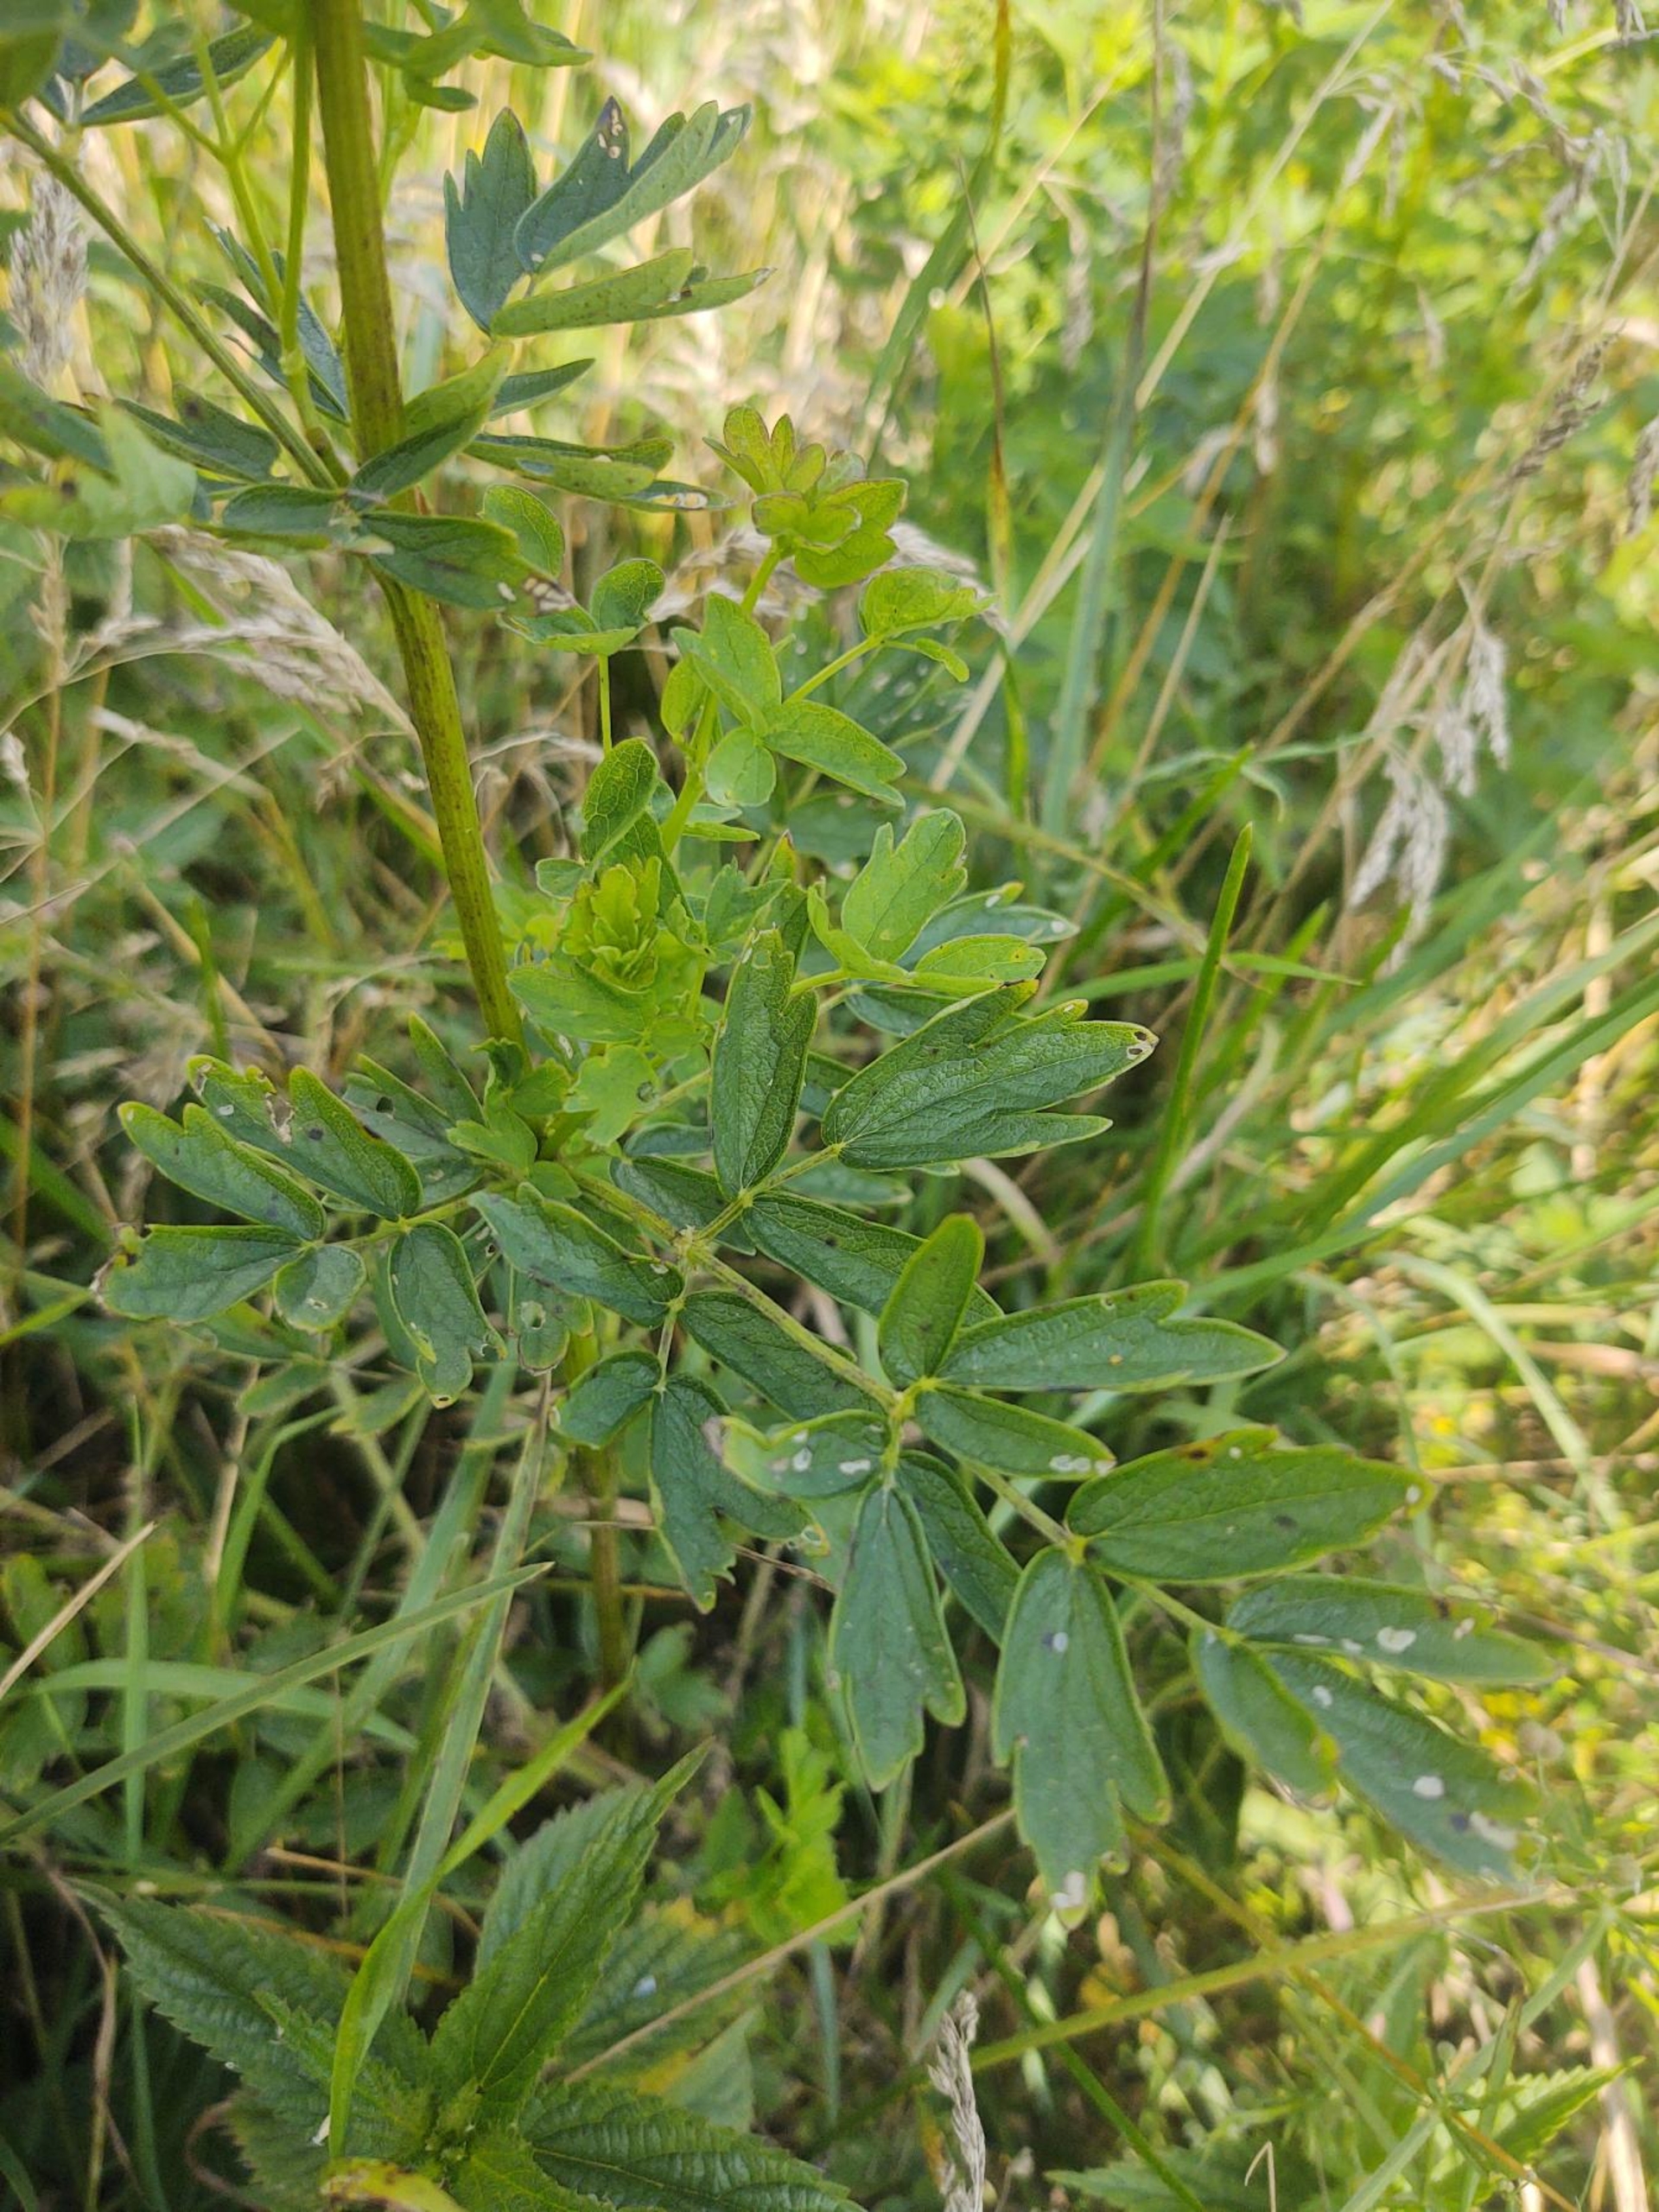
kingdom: Plantae
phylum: Tracheophyta
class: Magnoliopsida
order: Ranunculales
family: Ranunculaceae
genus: Thalictrum
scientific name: Thalictrum flavum
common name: Gul frøstjerne
